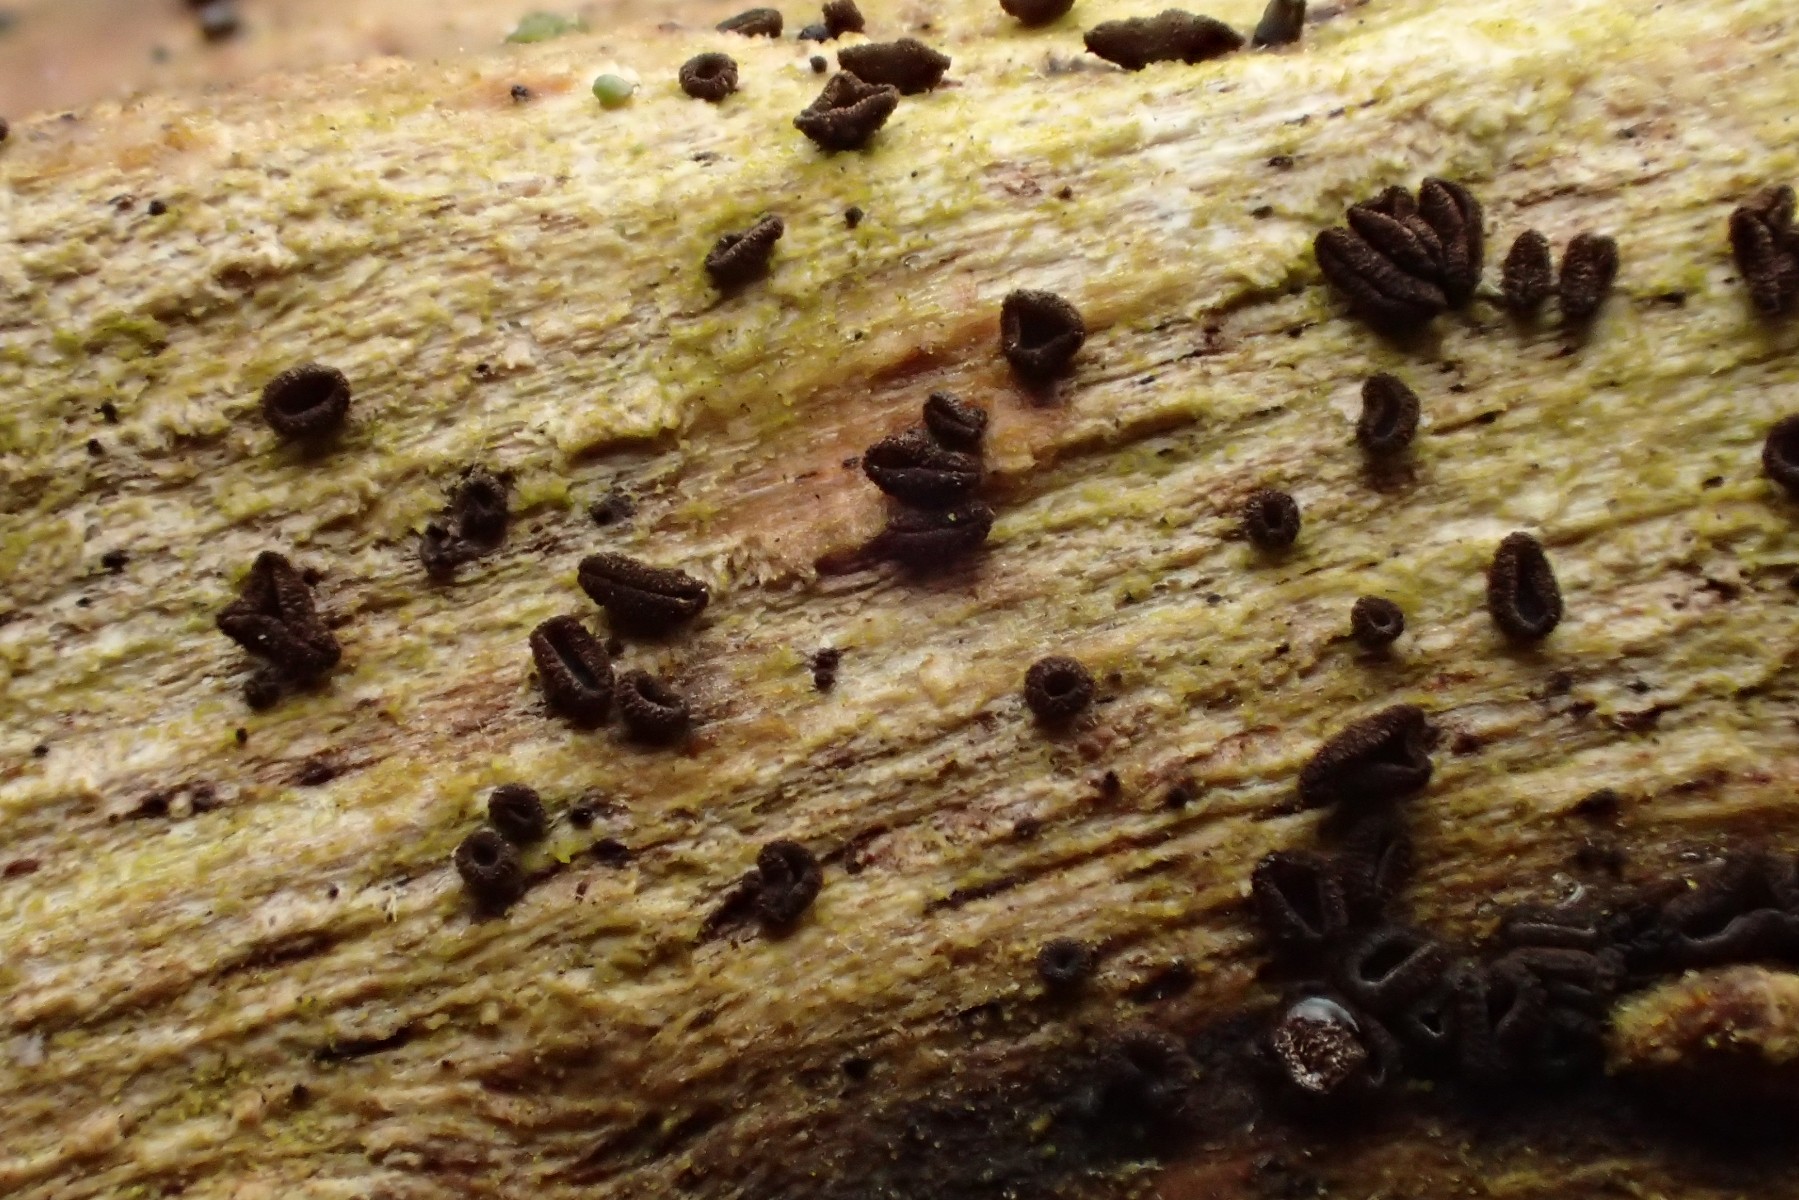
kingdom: Fungi
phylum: Ascomycota
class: Leotiomycetes
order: Helotiales
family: Mollisiaceae
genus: Mollisia
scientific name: Mollisia ligni
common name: ved-gråskive
